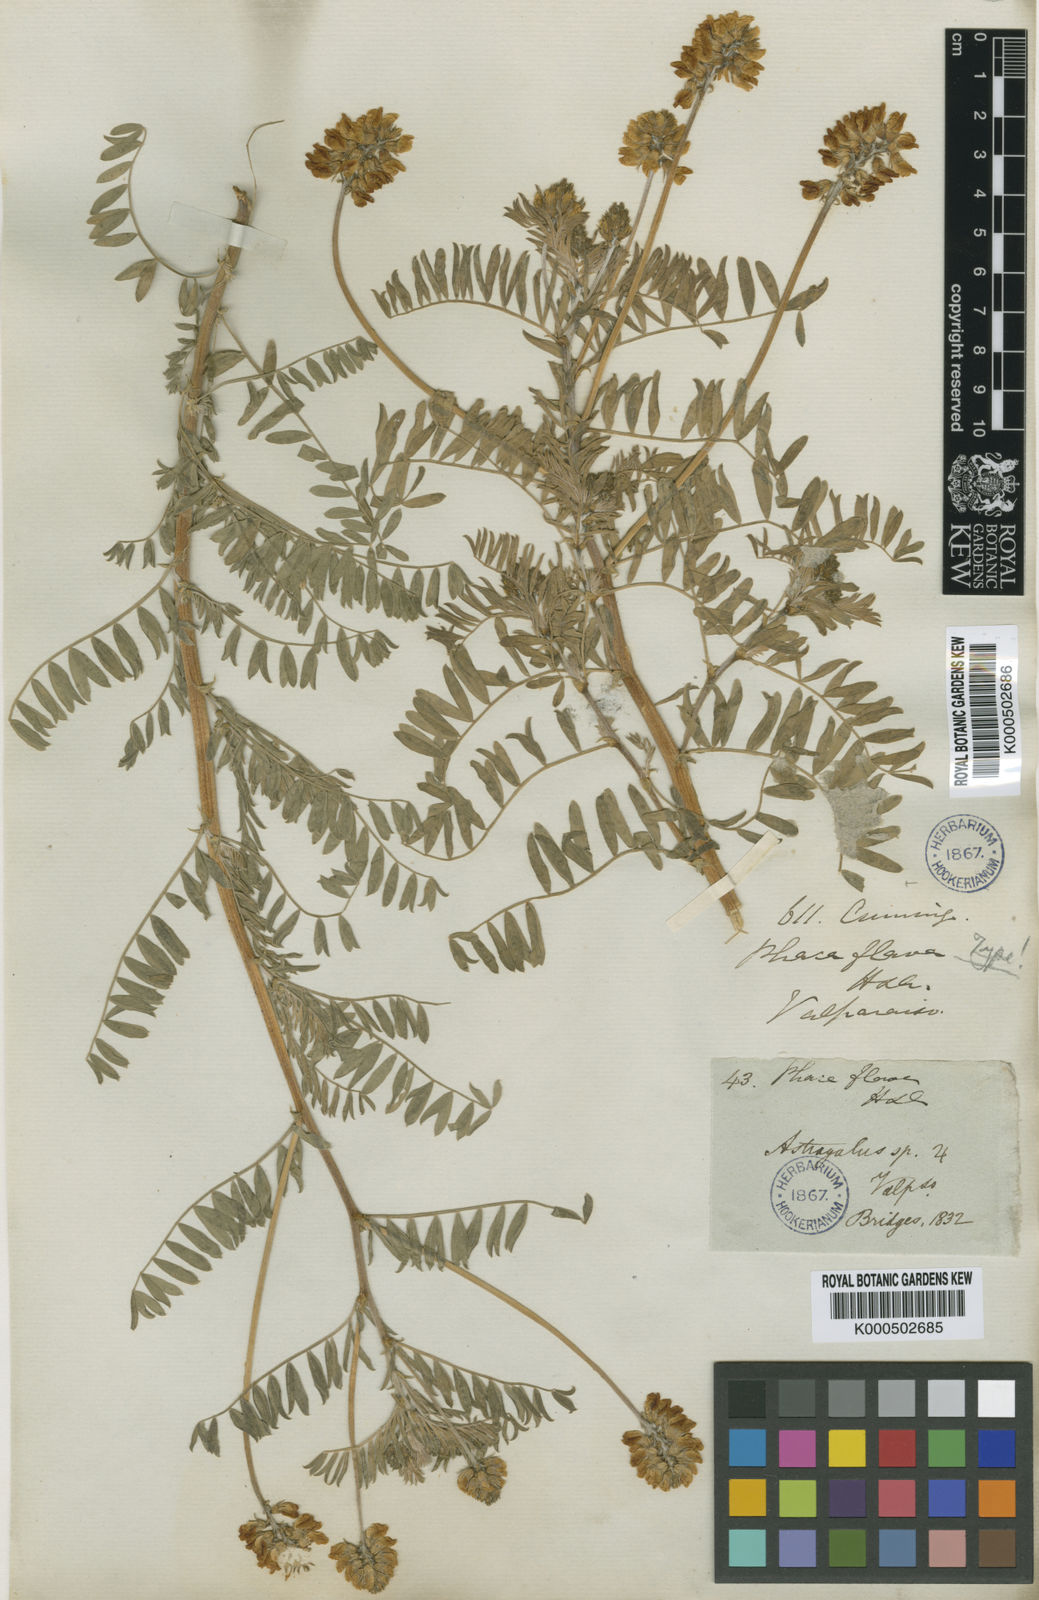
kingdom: Plantae
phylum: Tracheophyta
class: Magnoliopsida
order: Fabales
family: Fabaceae
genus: Astragalus
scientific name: Astragalus
